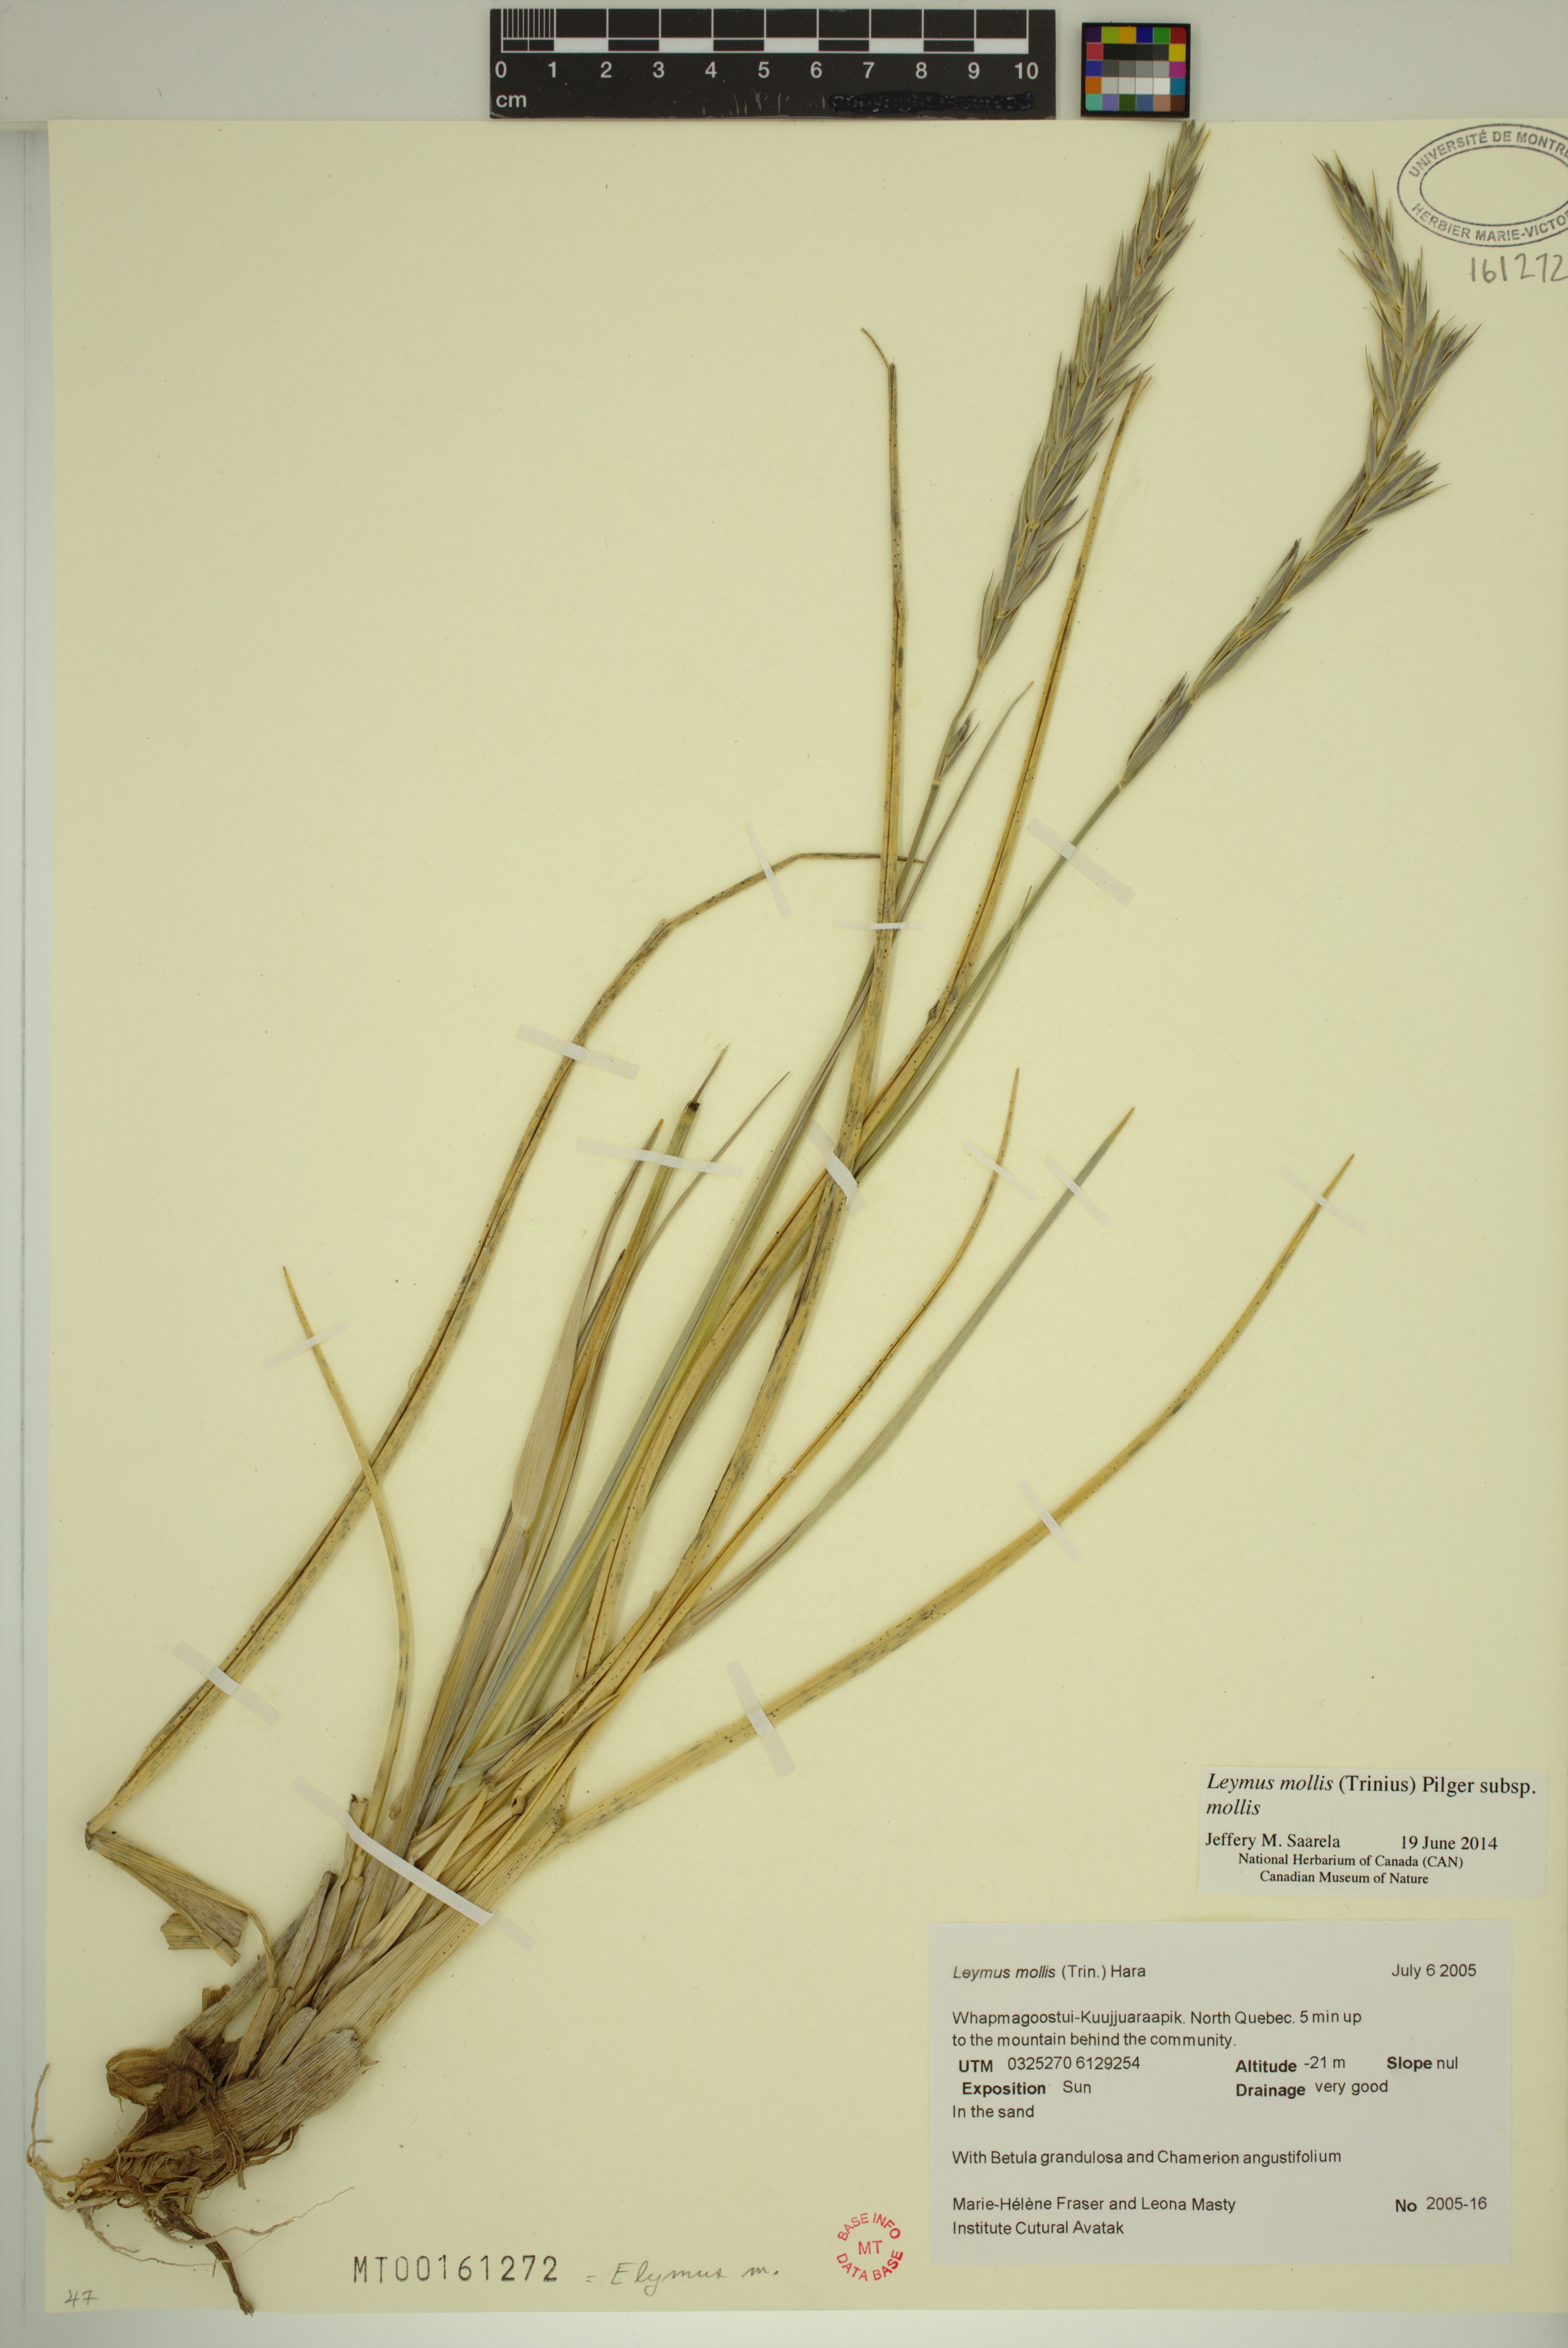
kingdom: Plantae
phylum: Tracheophyta
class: Liliopsida
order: Poales
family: Poaceae
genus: Leymus
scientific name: Leymus mollis
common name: American dune grass
